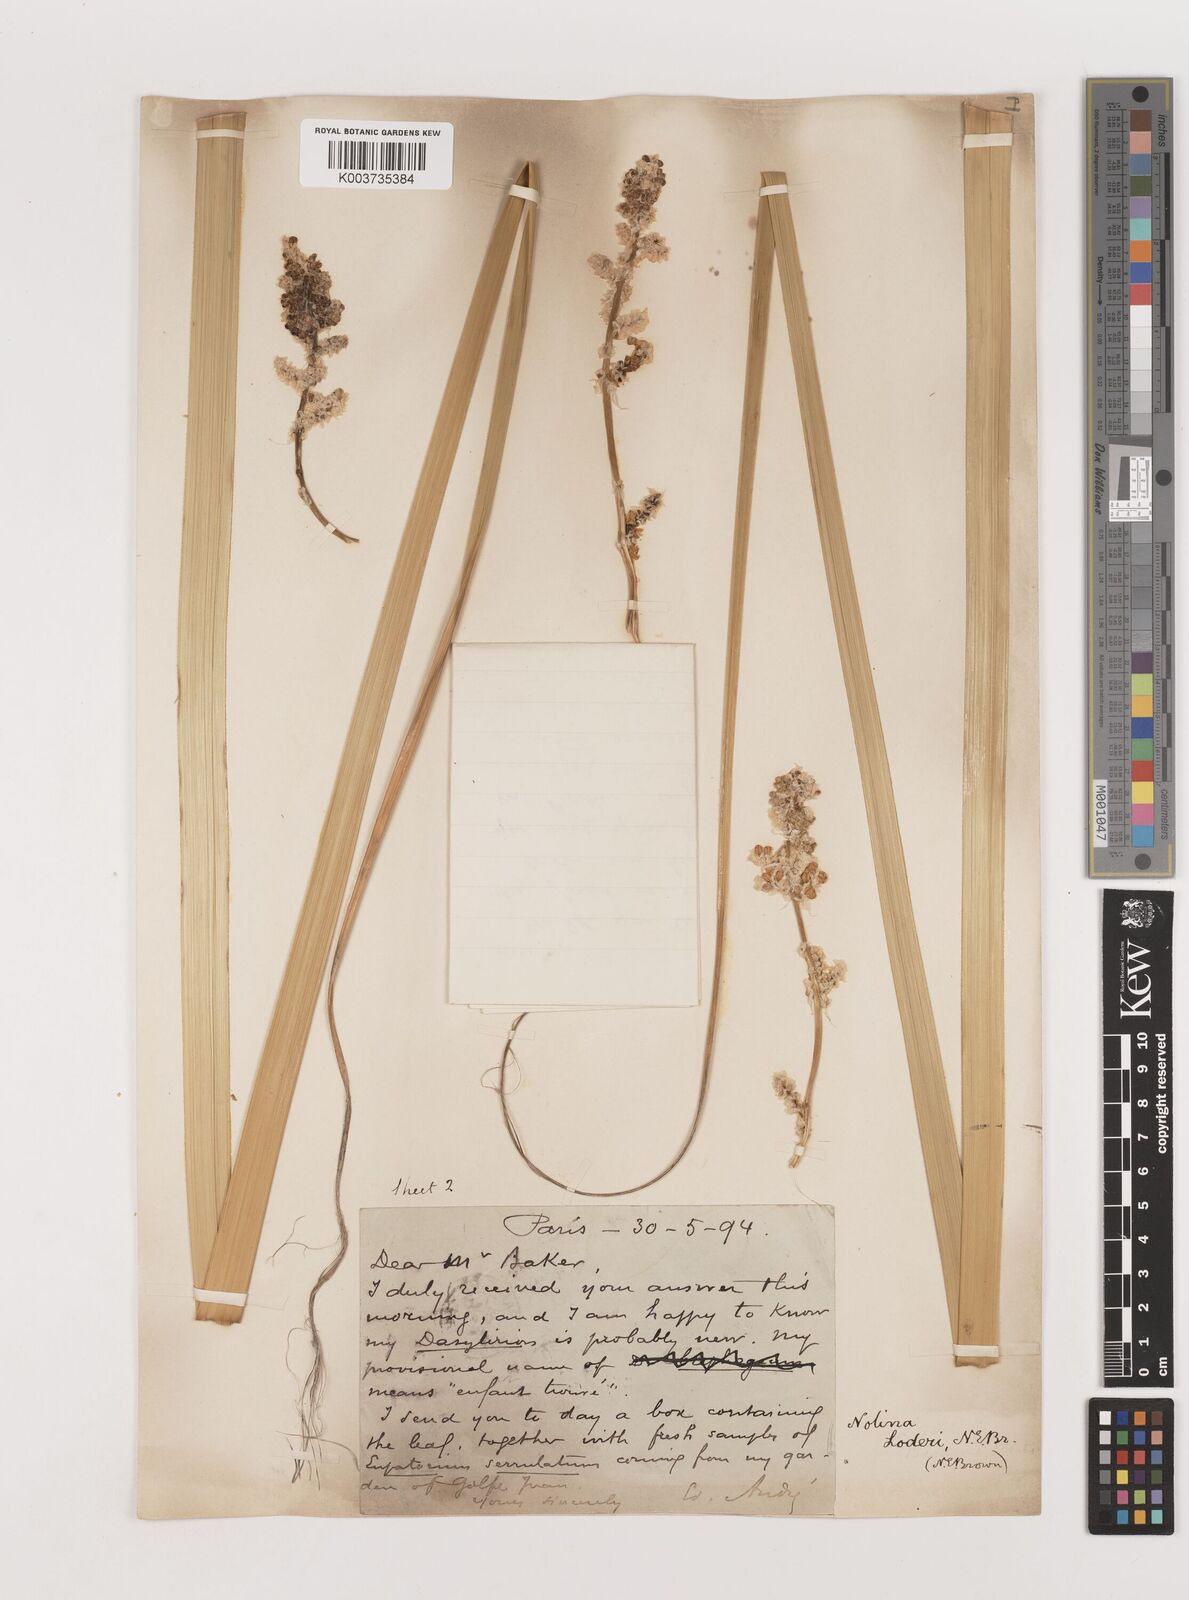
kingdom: Plantae
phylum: Tracheophyta
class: Liliopsida
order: Asparagales
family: Asparagaceae
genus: Nolina
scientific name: Nolina loderi
